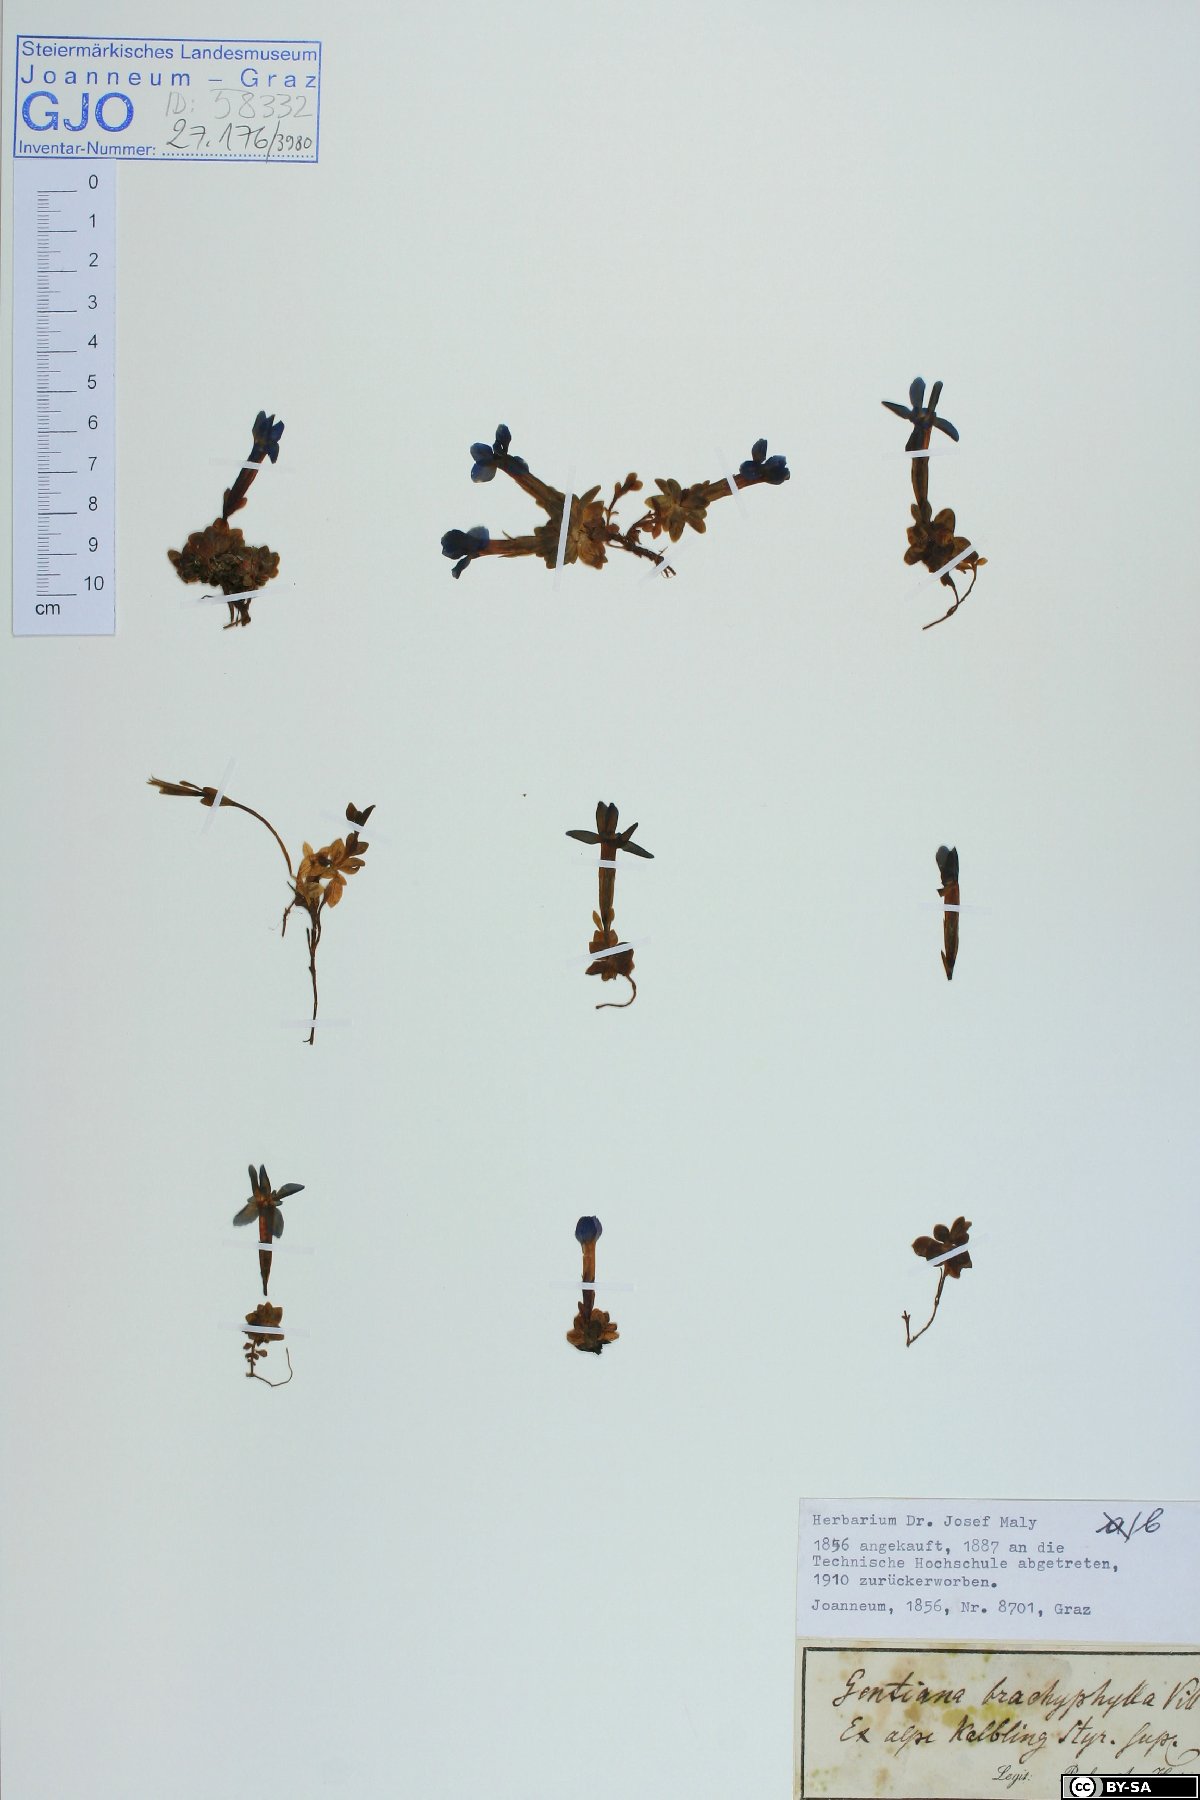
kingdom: Plantae
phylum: Tracheophyta
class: Magnoliopsida
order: Gentianales
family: Gentianaceae
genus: Gentiana
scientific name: Gentiana brachyphylla
